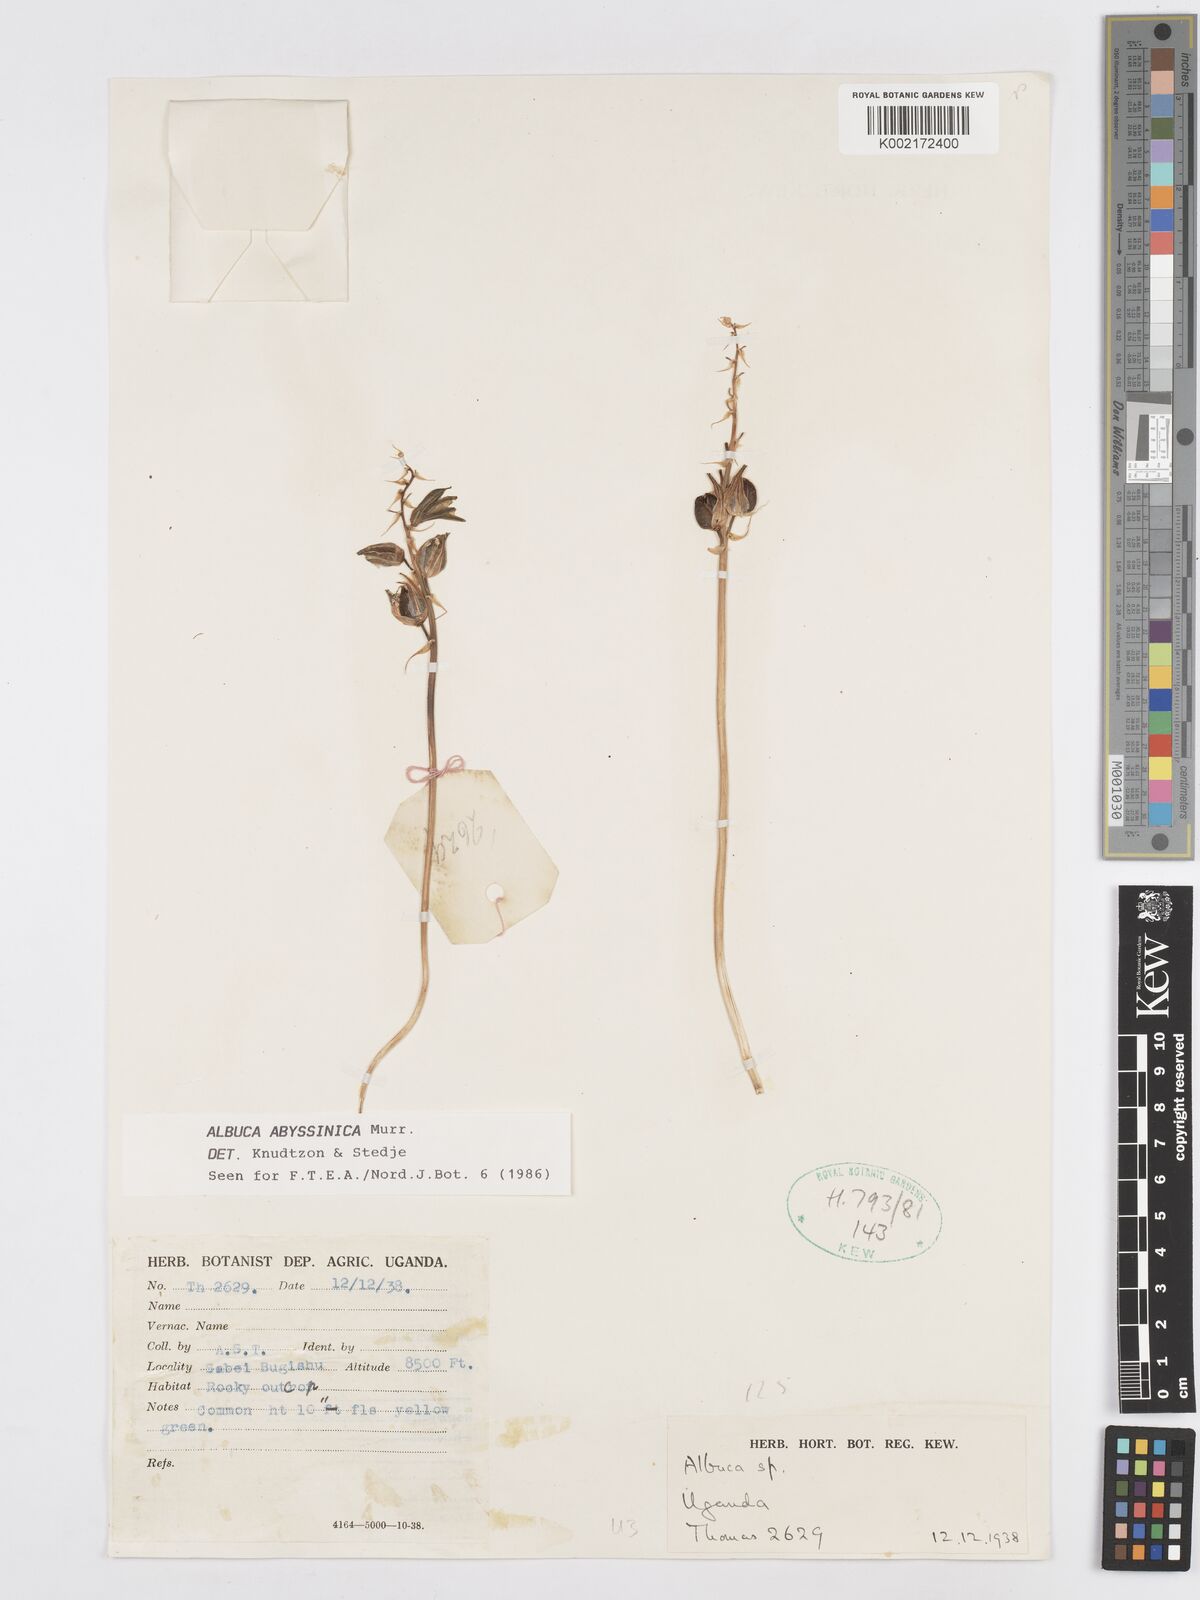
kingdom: Plantae
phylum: Tracheophyta
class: Liliopsida
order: Asparagales
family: Asparagaceae
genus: Albuca
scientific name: Albuca abyssinica
